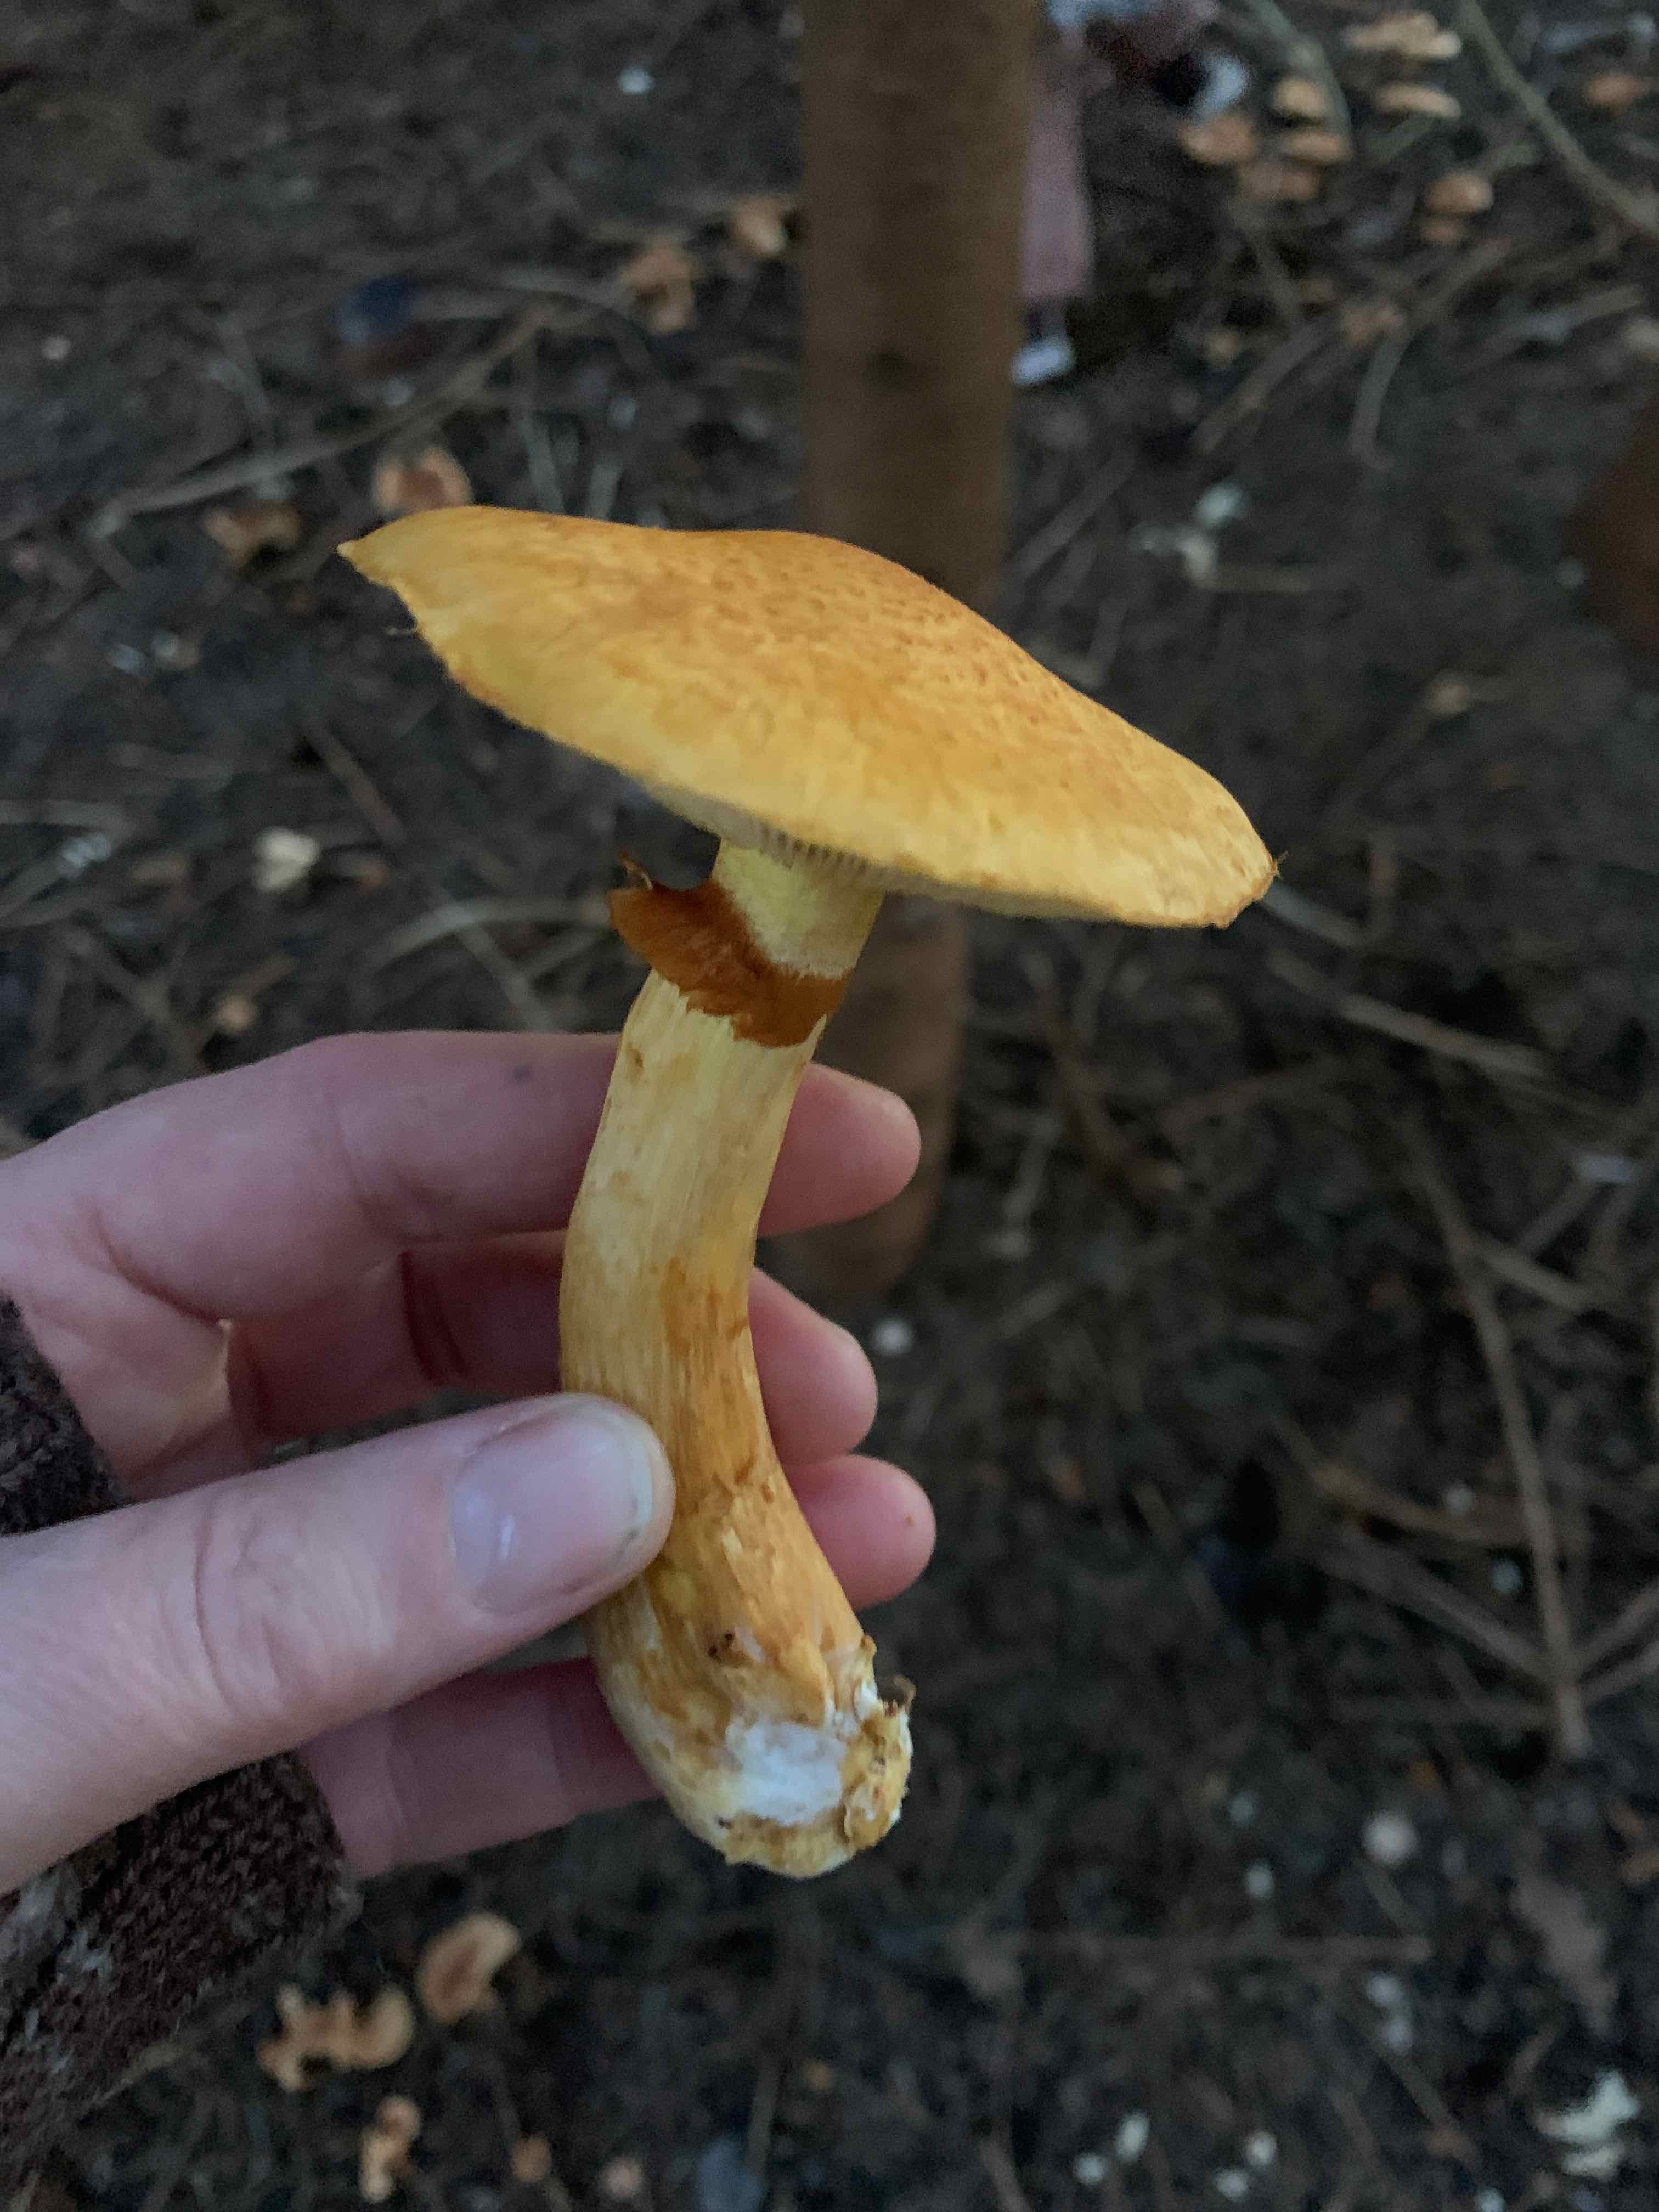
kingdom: Fungi
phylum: Basidiomycota
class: Agaricomycetes
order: Agaricales
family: Hymenogastraceae
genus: Gymnopilus
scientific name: Gymnopilus spectabilis
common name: fibret flammehat
